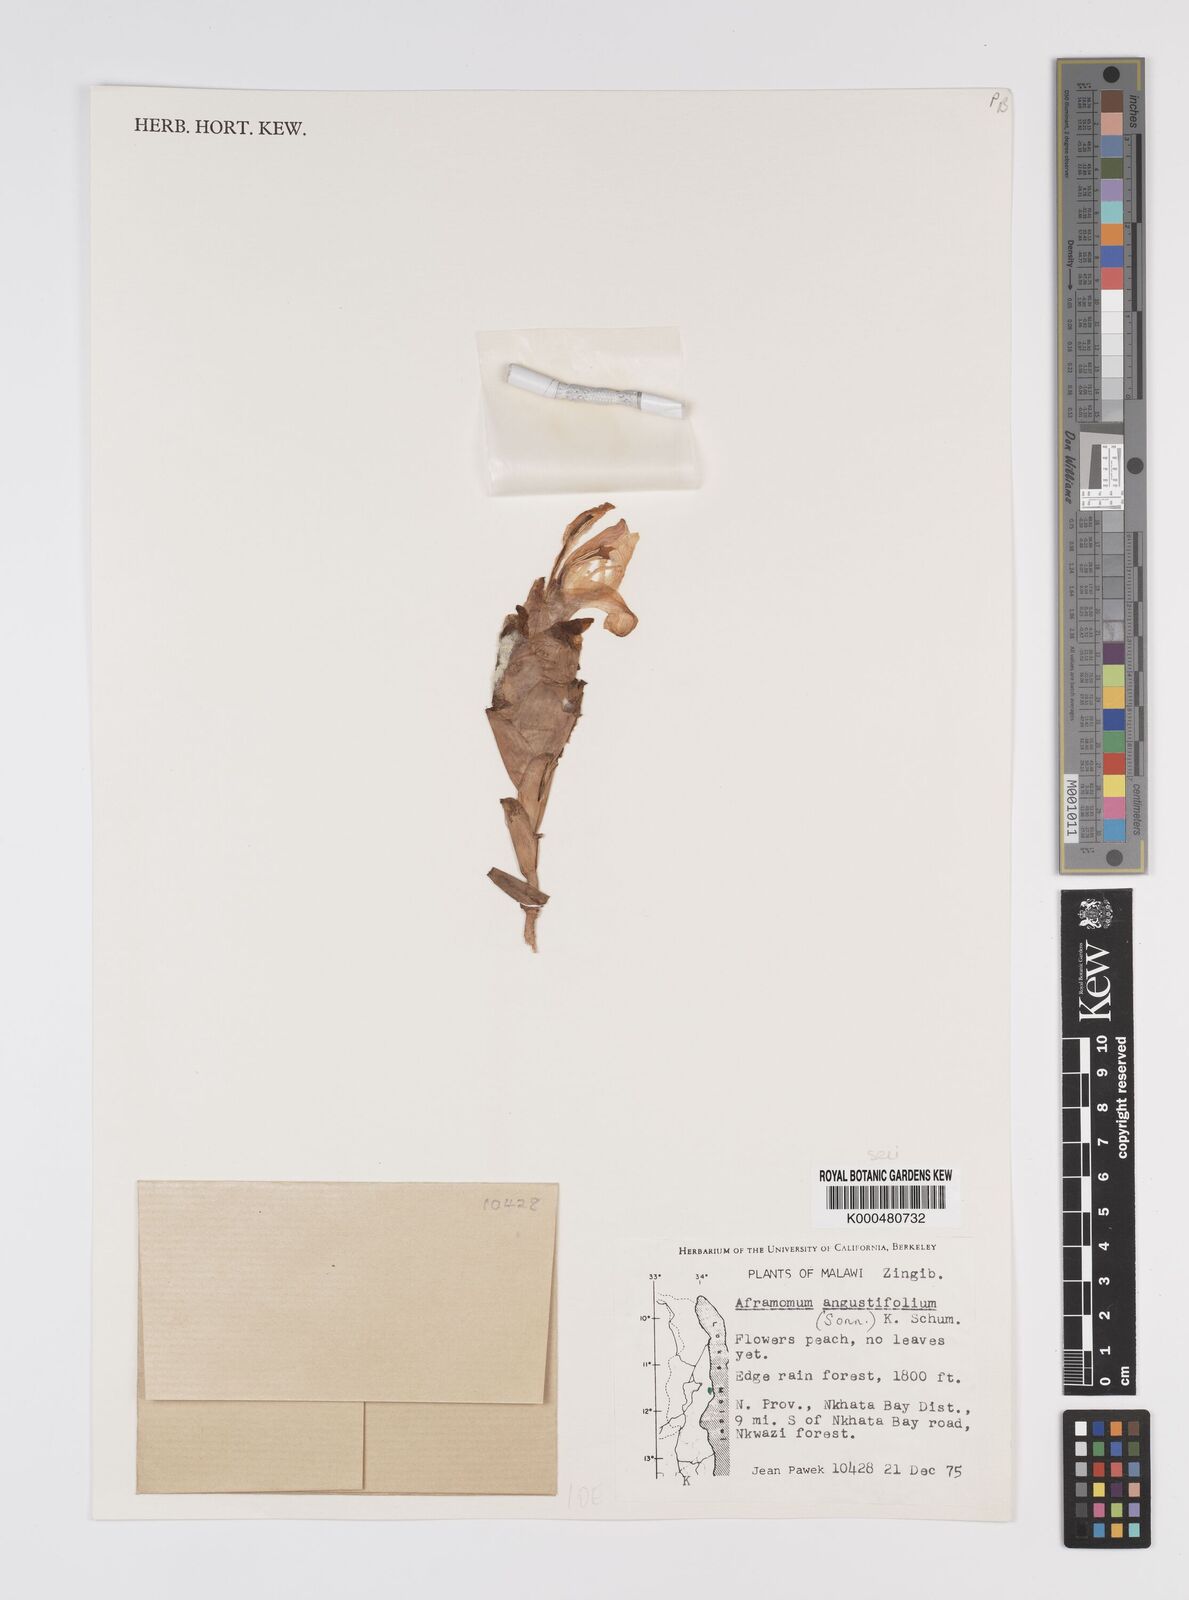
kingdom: Plantae
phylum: Tracheophyta
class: Liliopsida
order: Zingiberales
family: Zingiberaceae
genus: Aframomum
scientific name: Aframomum angustifolium
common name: Guinea grains
